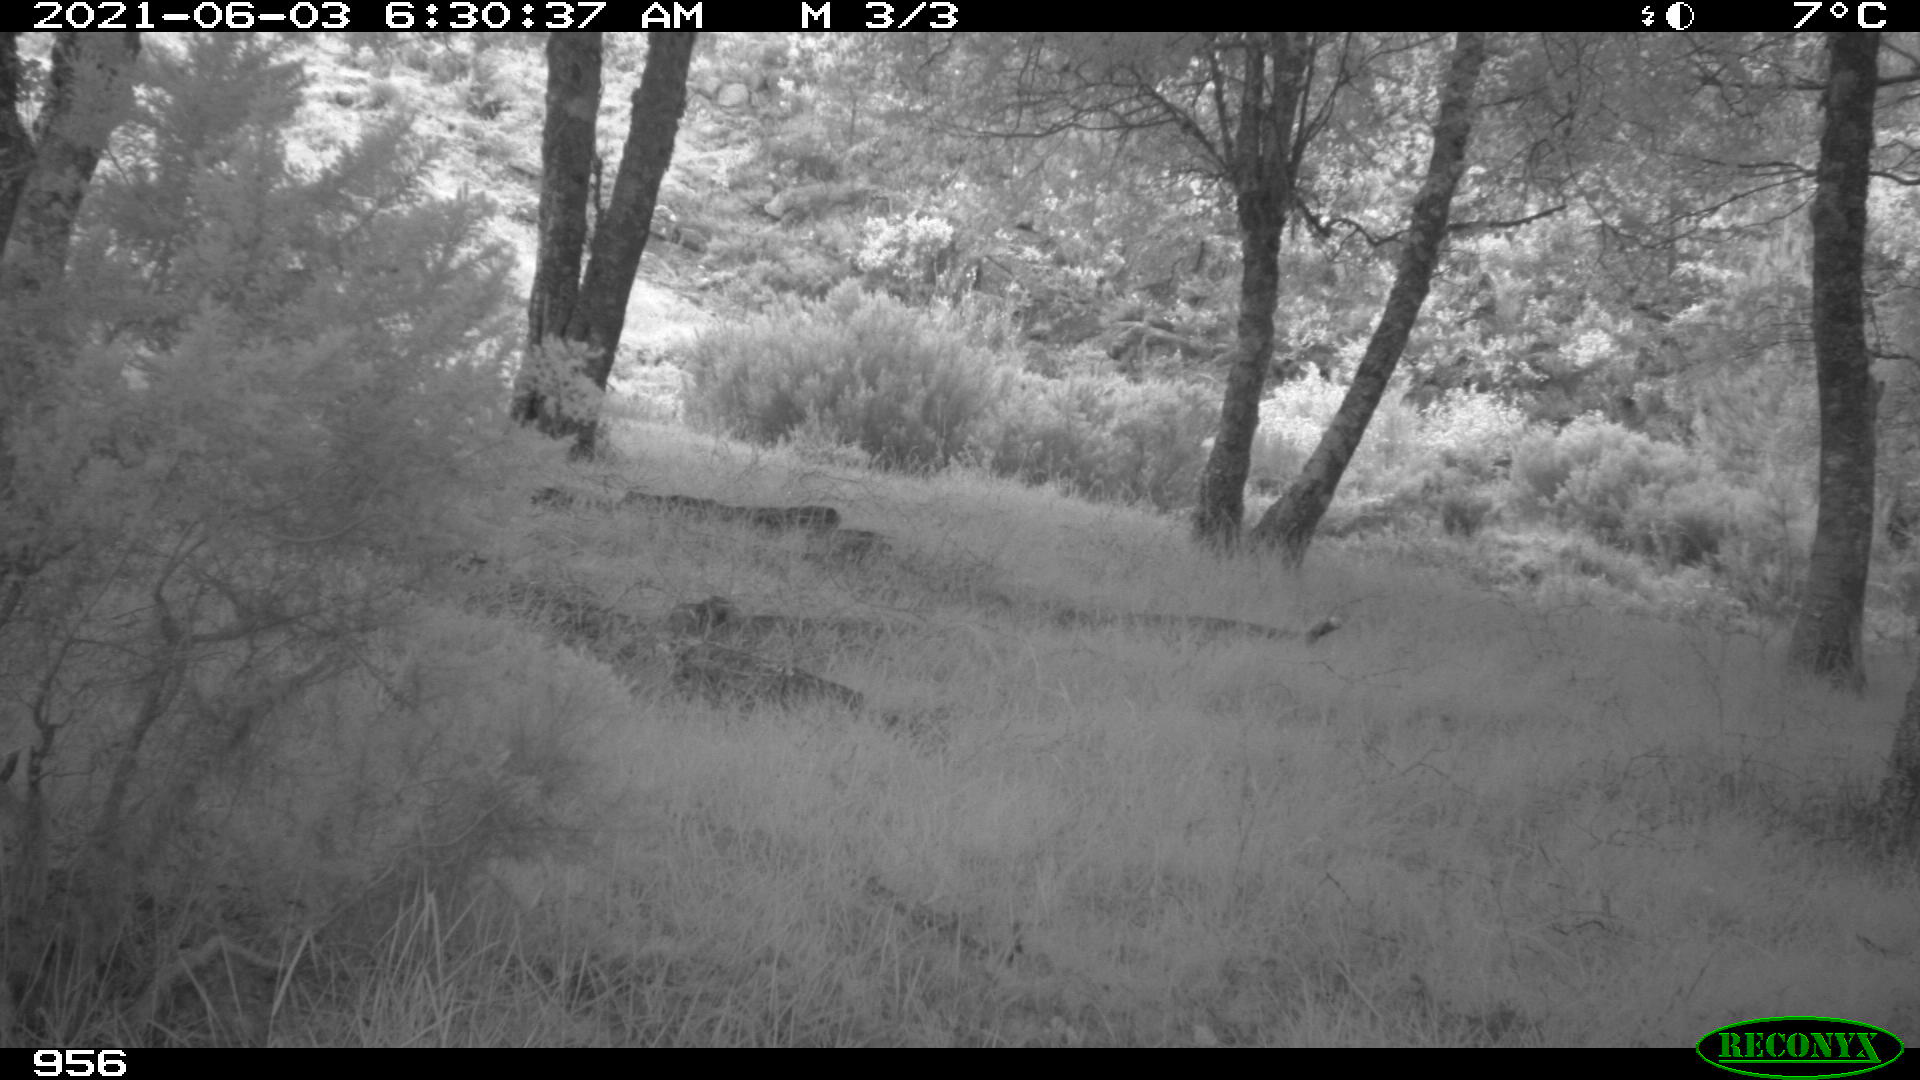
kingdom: Animalia
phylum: Chordata
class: Mammalia
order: Perissodactyla
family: Equidae
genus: Equus
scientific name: Equus caballus
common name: Horse
